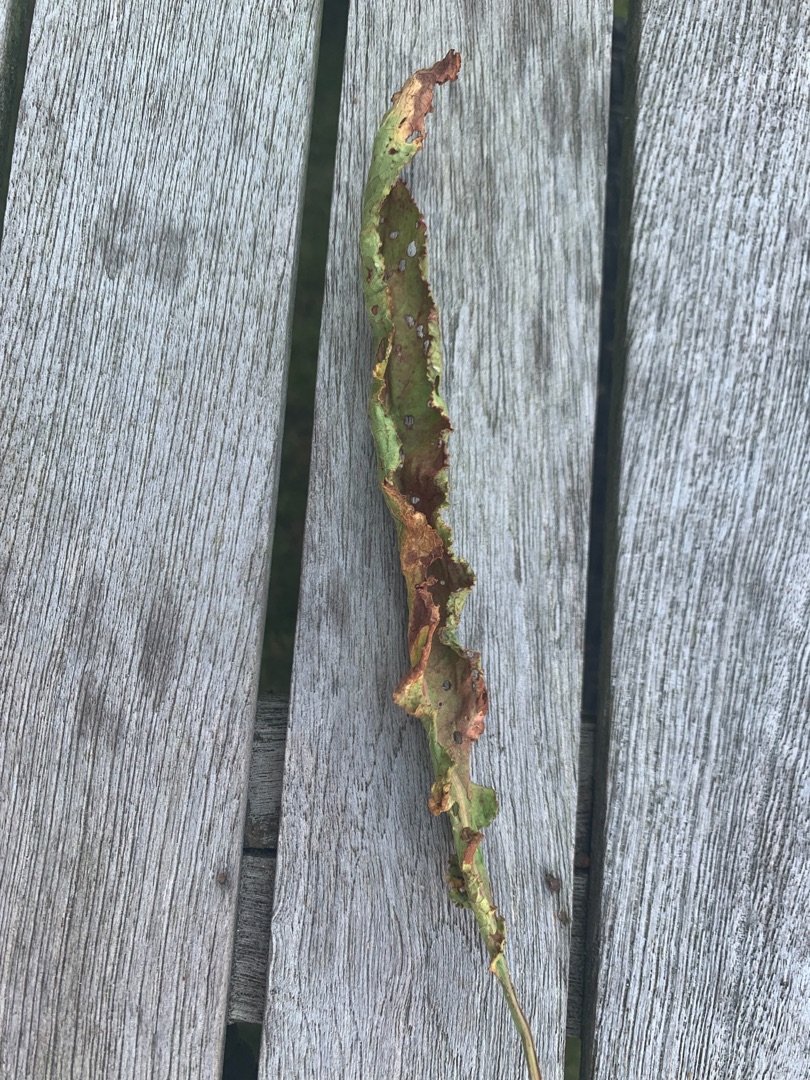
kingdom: Plantae
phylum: Tracheophyta
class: Magnoliopsida
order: Caryophyllales
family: Polygonaceae
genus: Rumex
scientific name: Rumex crispus
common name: Kruset skræppe
